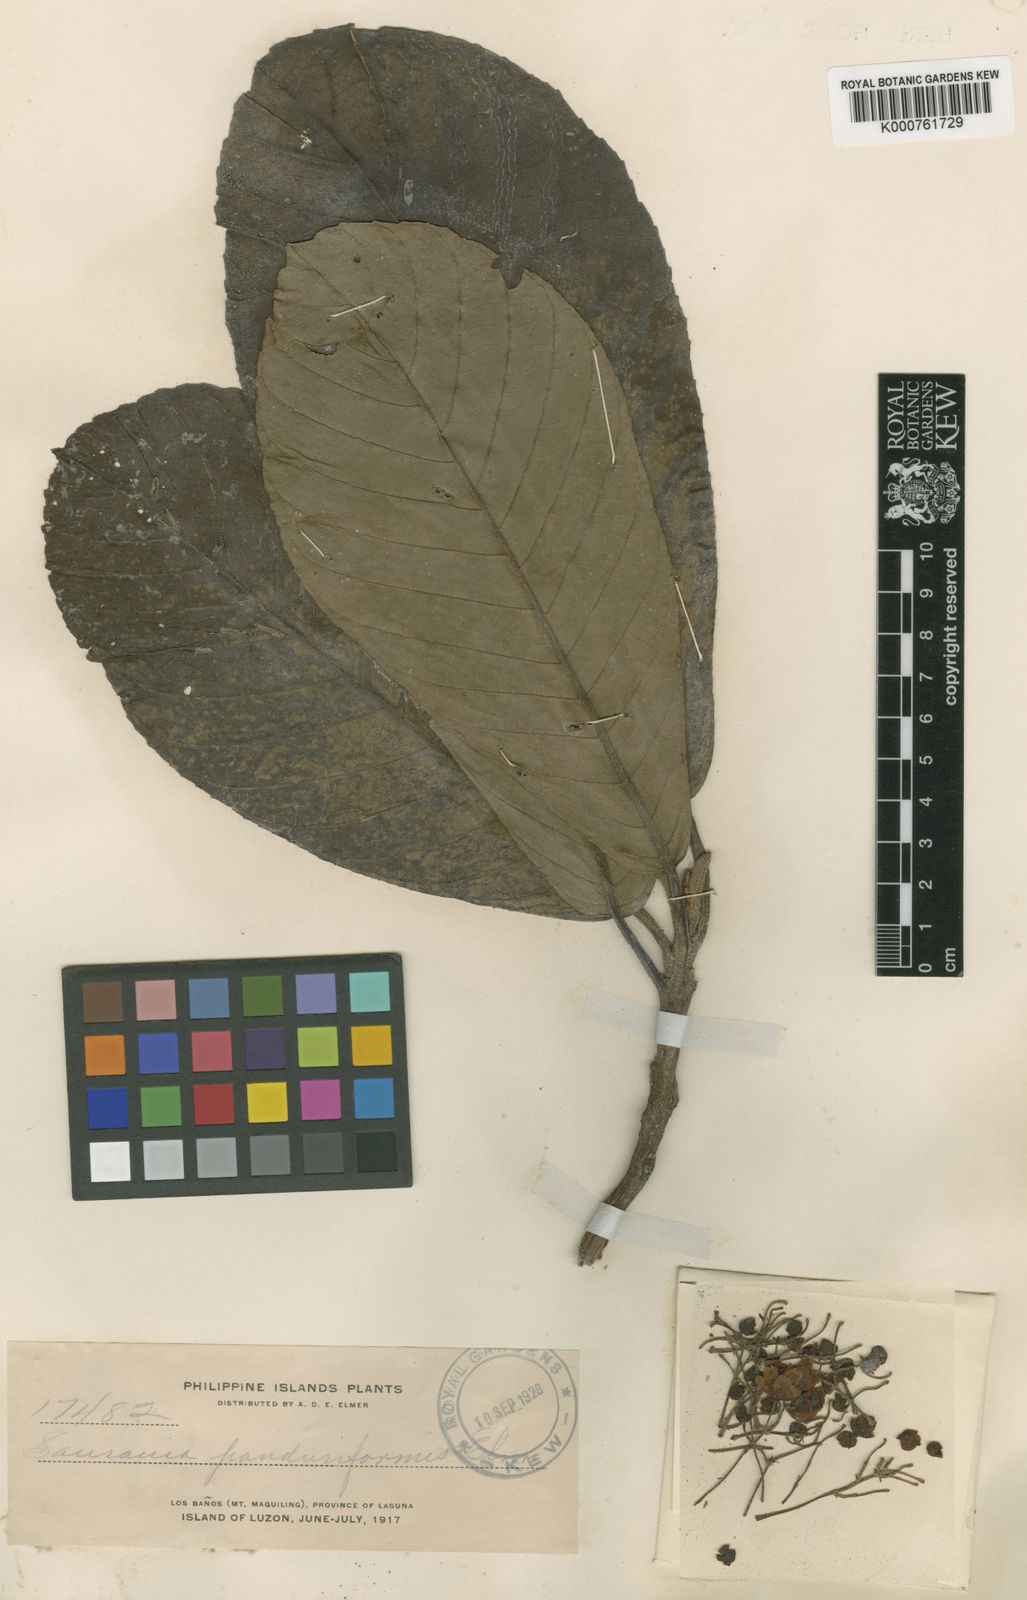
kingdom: Plantae
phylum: Tracheophyta
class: Magnoliopsida
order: Ericales
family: Actinidiaceae
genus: Saurauia
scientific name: Saurauia panduriformis
